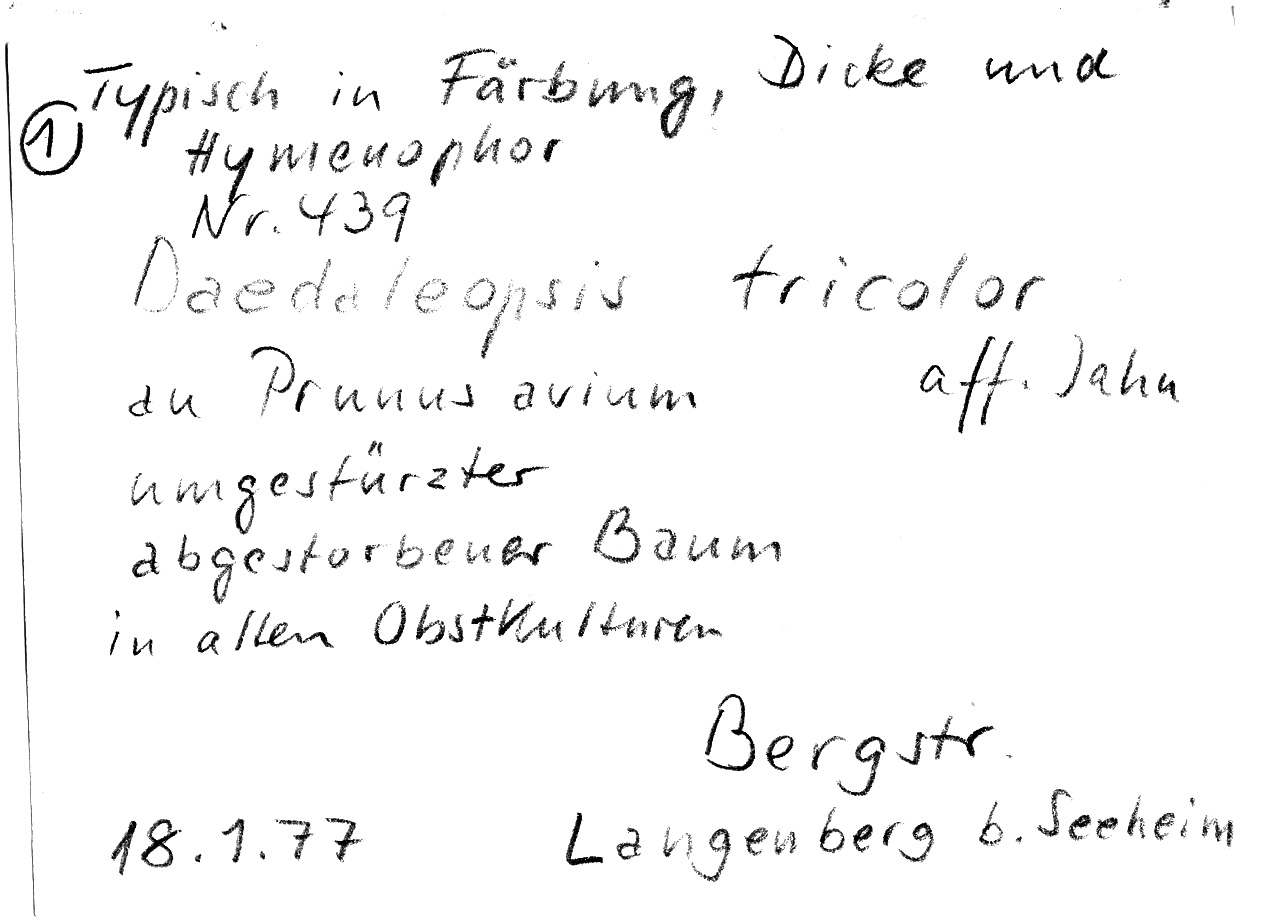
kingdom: Fungi
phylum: Basidiomycota
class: Agaricomycetes
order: Polyporales
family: Polyporaceae
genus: Daedaleopsis
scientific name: Daedaleopsis confragosa
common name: Blushing bracket
